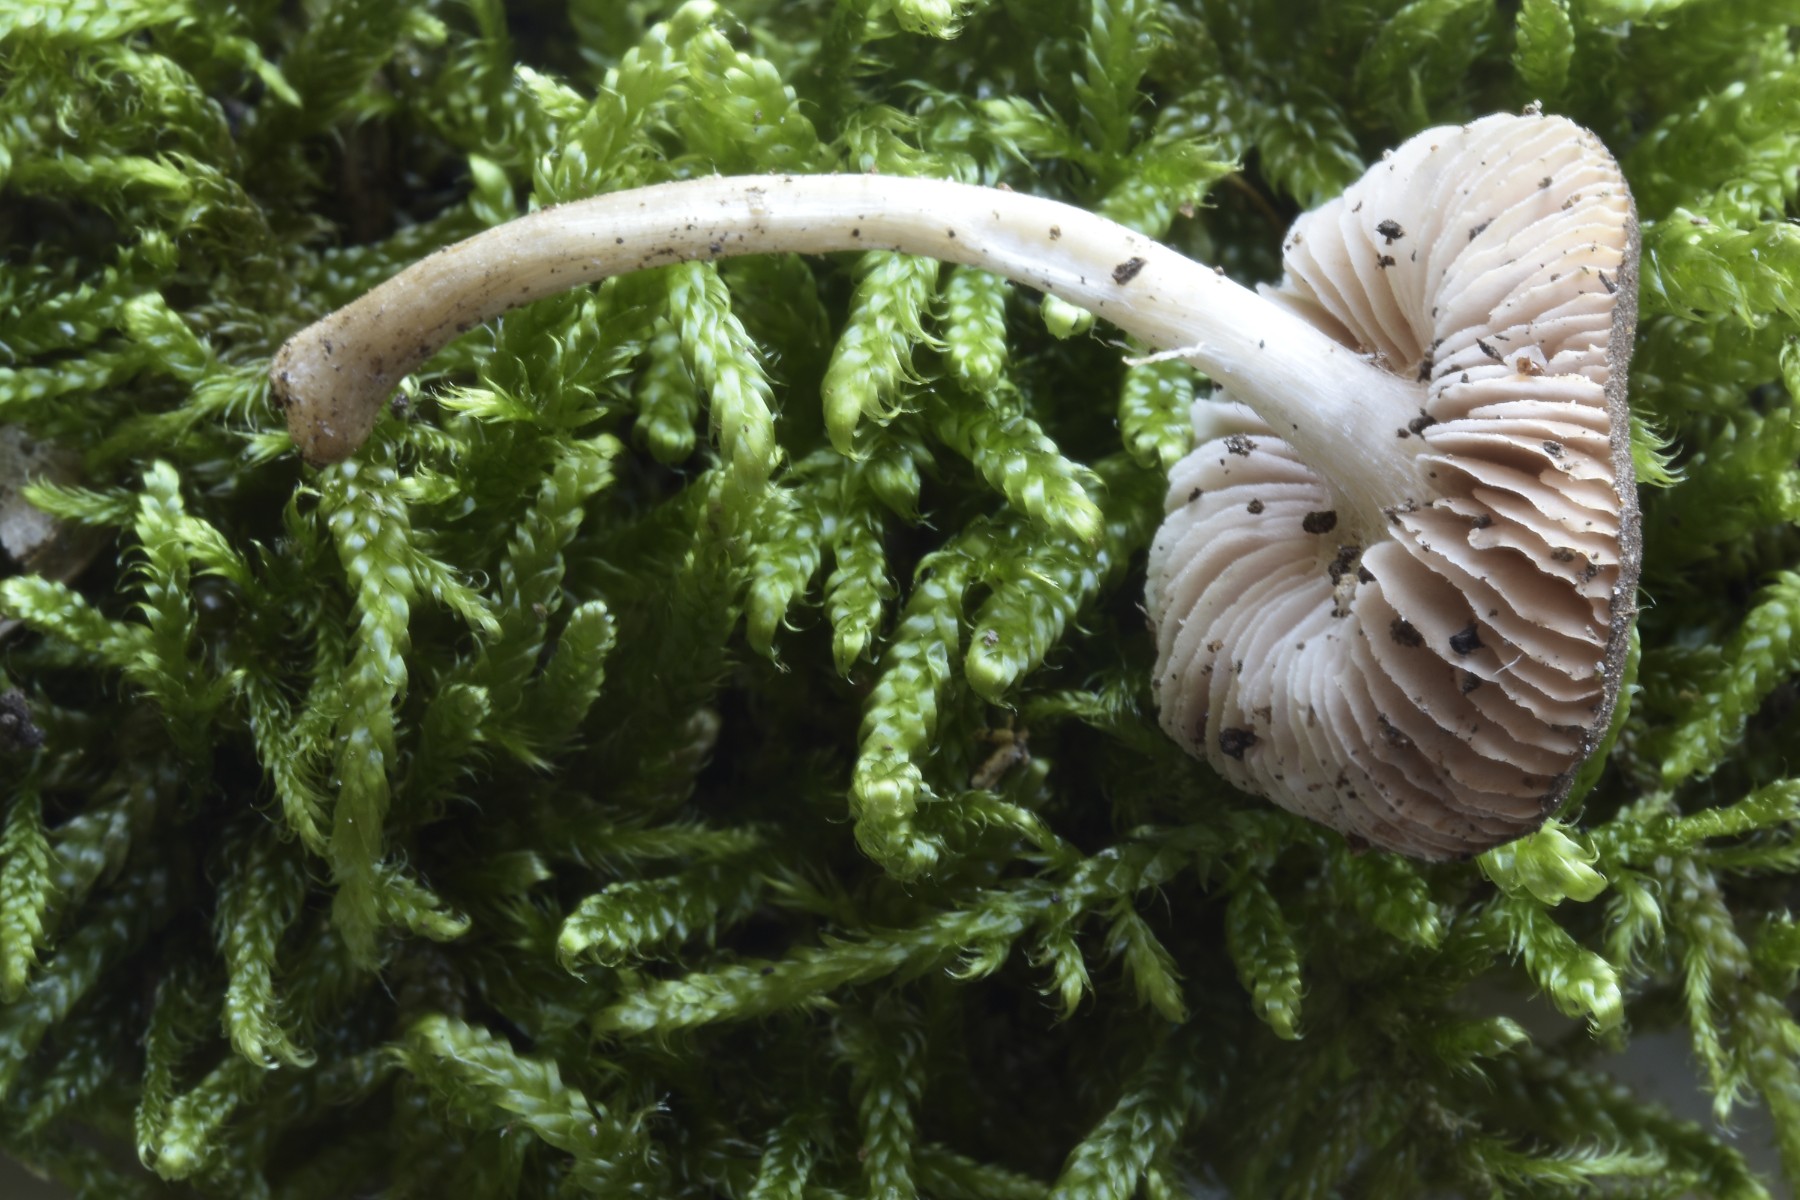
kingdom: Fungi
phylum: Basidiomycota
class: Agaricomycetes
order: Agaricales
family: Pluteaceae
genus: Pluteus
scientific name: Pluteus podospileus
